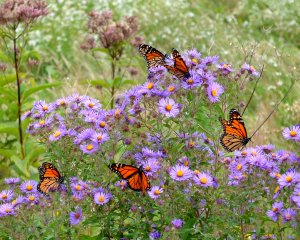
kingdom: Animalia
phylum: Arthropoda
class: Insecta
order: Lepidoptera
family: Nymphalidae
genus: Danaus
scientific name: Danaus plexippus
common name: Monarch
